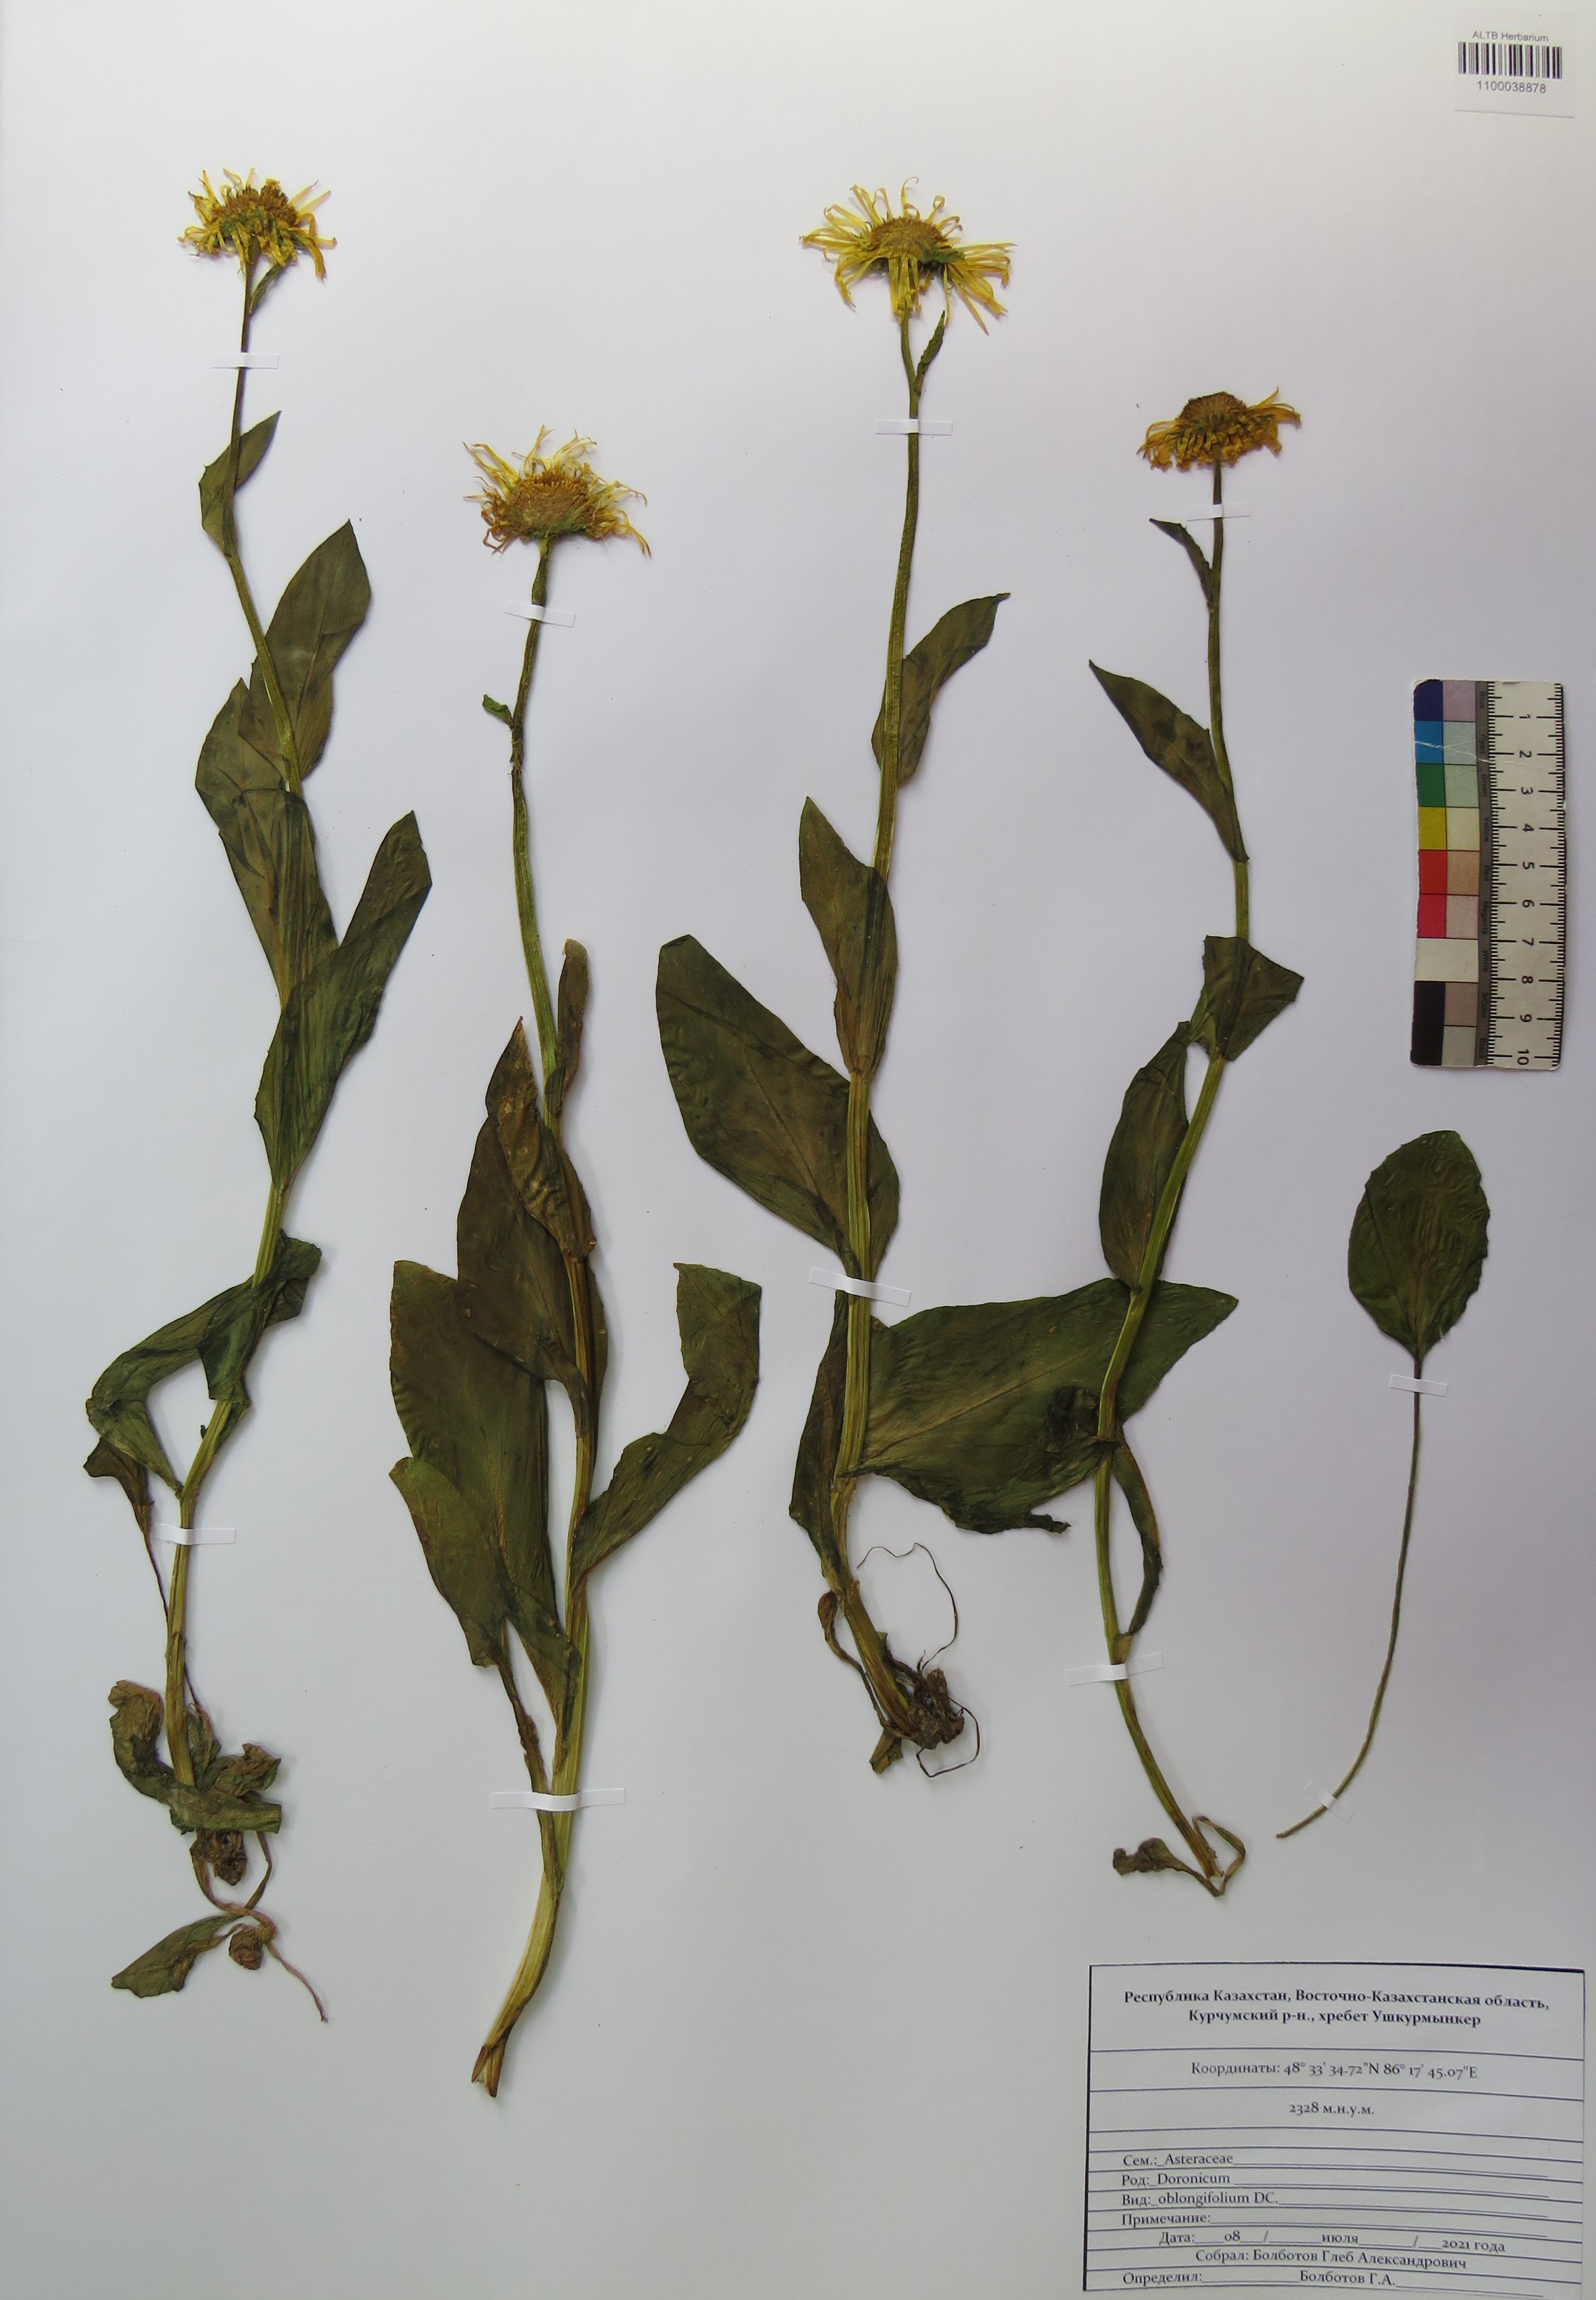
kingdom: Plantae
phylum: Tracheophyta
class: Magnoliopsida
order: Asterales
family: Asteraceae
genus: Doronicum
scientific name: Doronicum oblongifolium
